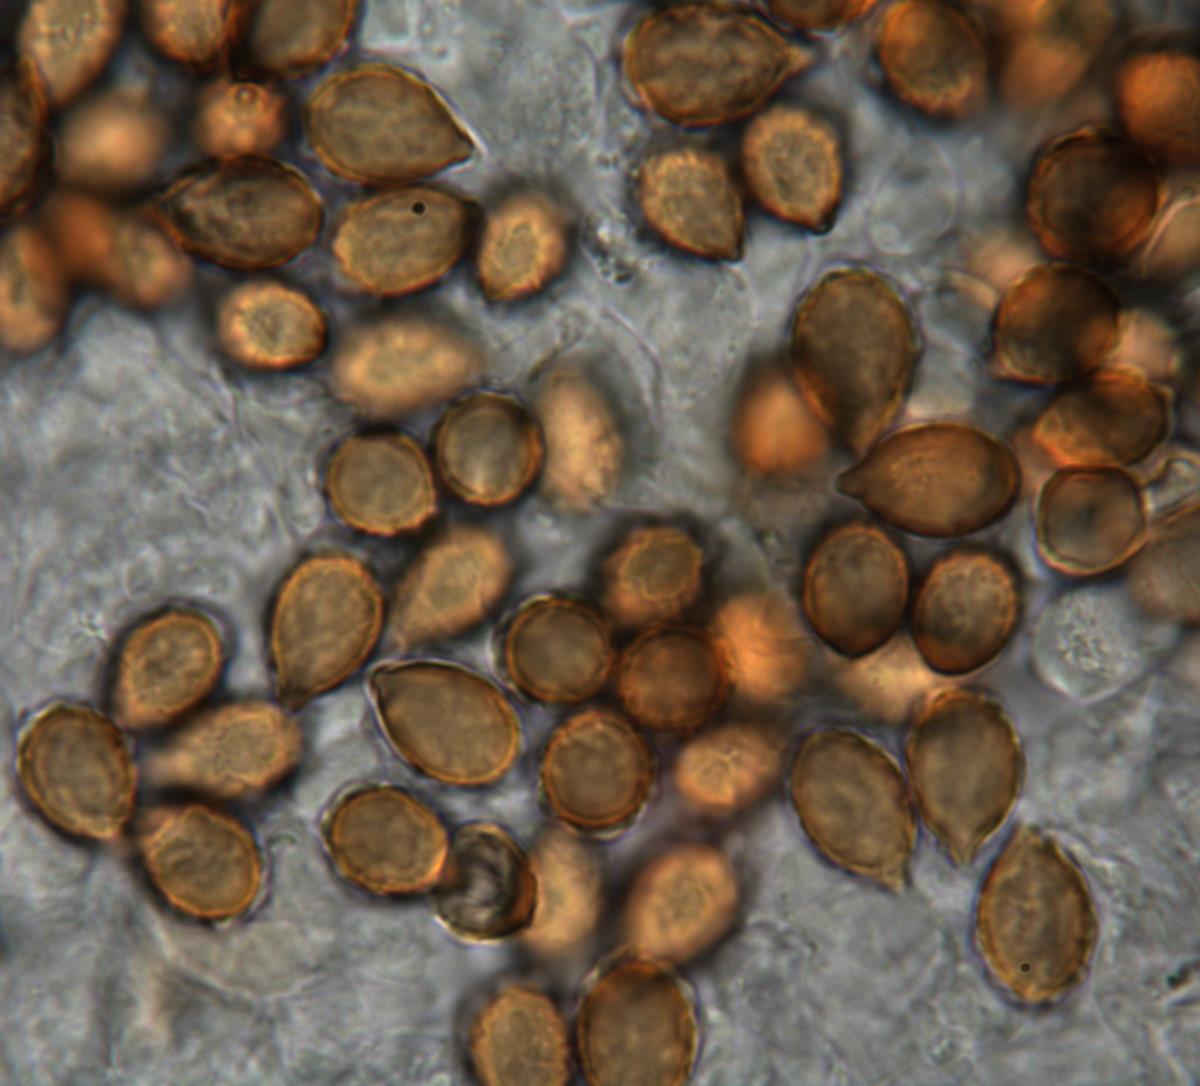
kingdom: Fungi
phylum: Basidiomycota
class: Agaricomycetes
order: Agaricales
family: Cortinariaceae
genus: Cortinarius
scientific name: Cortinarius atratus
